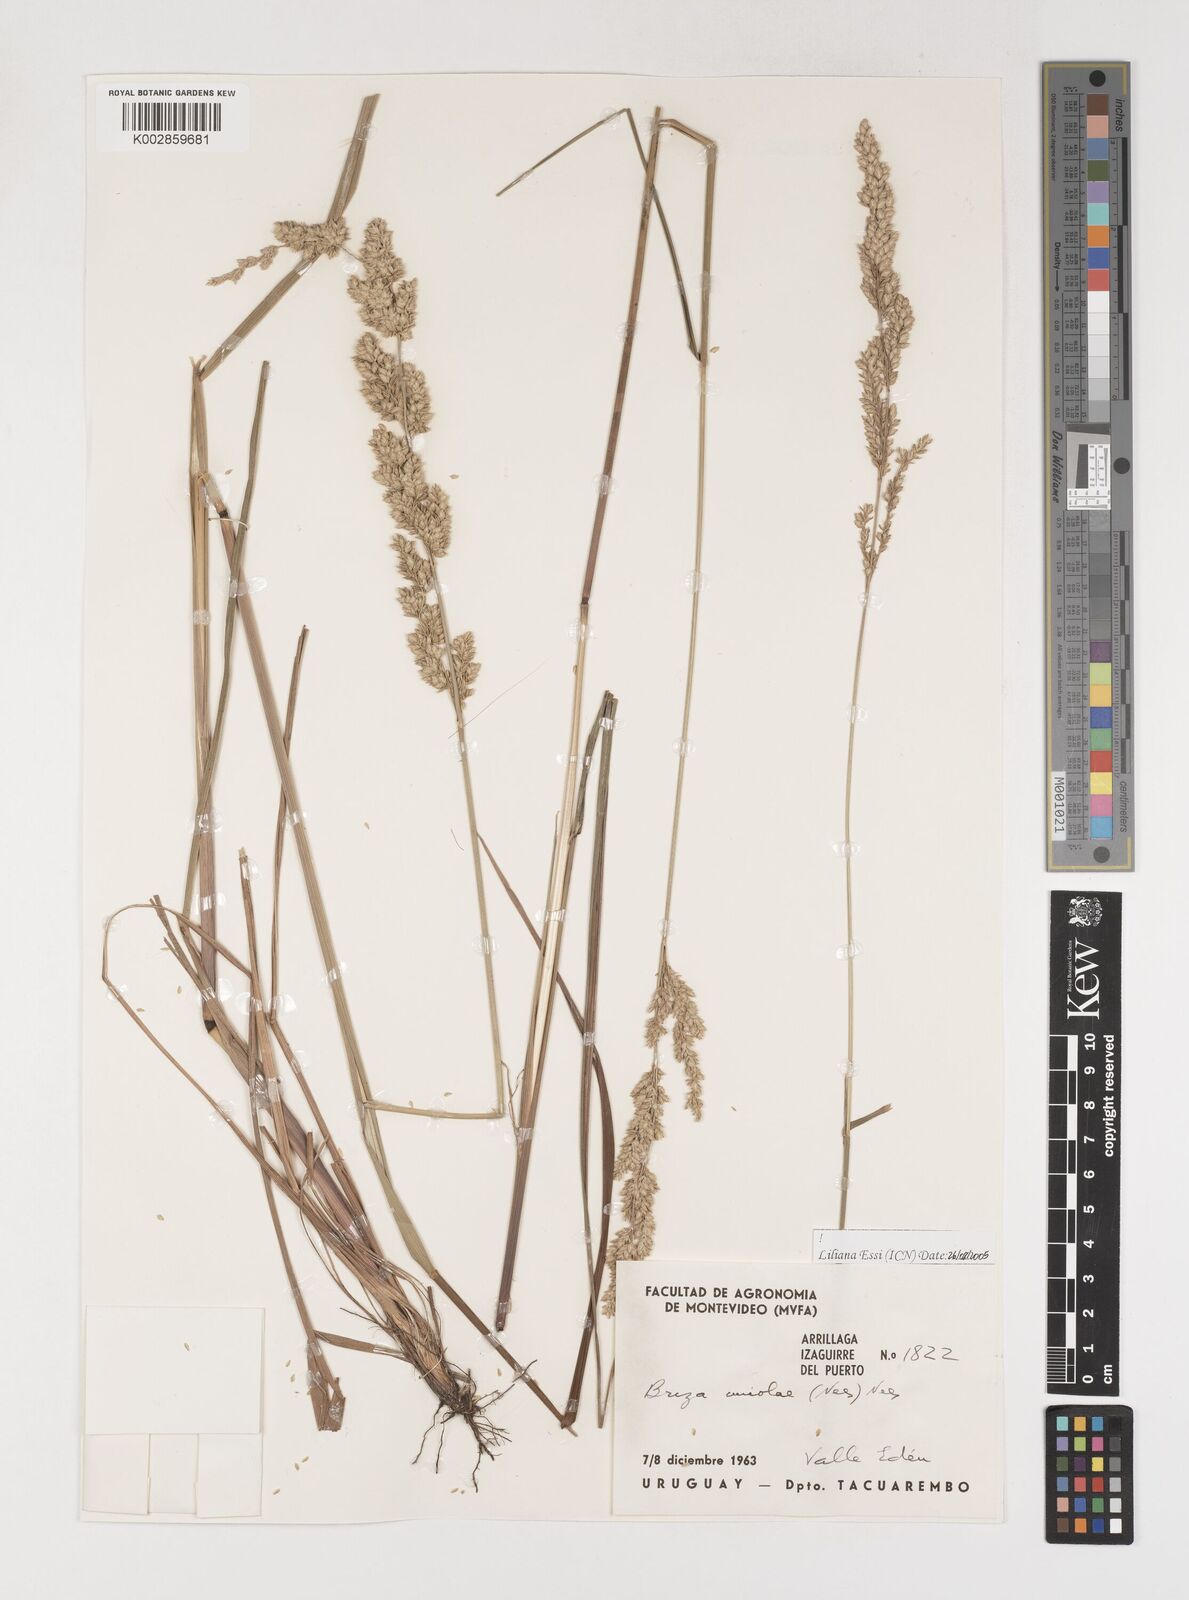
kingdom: Plantae
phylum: Tracheophyta
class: Liliopsida
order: Poales
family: Poaceae
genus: Poidium
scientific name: Poidium uniolae
